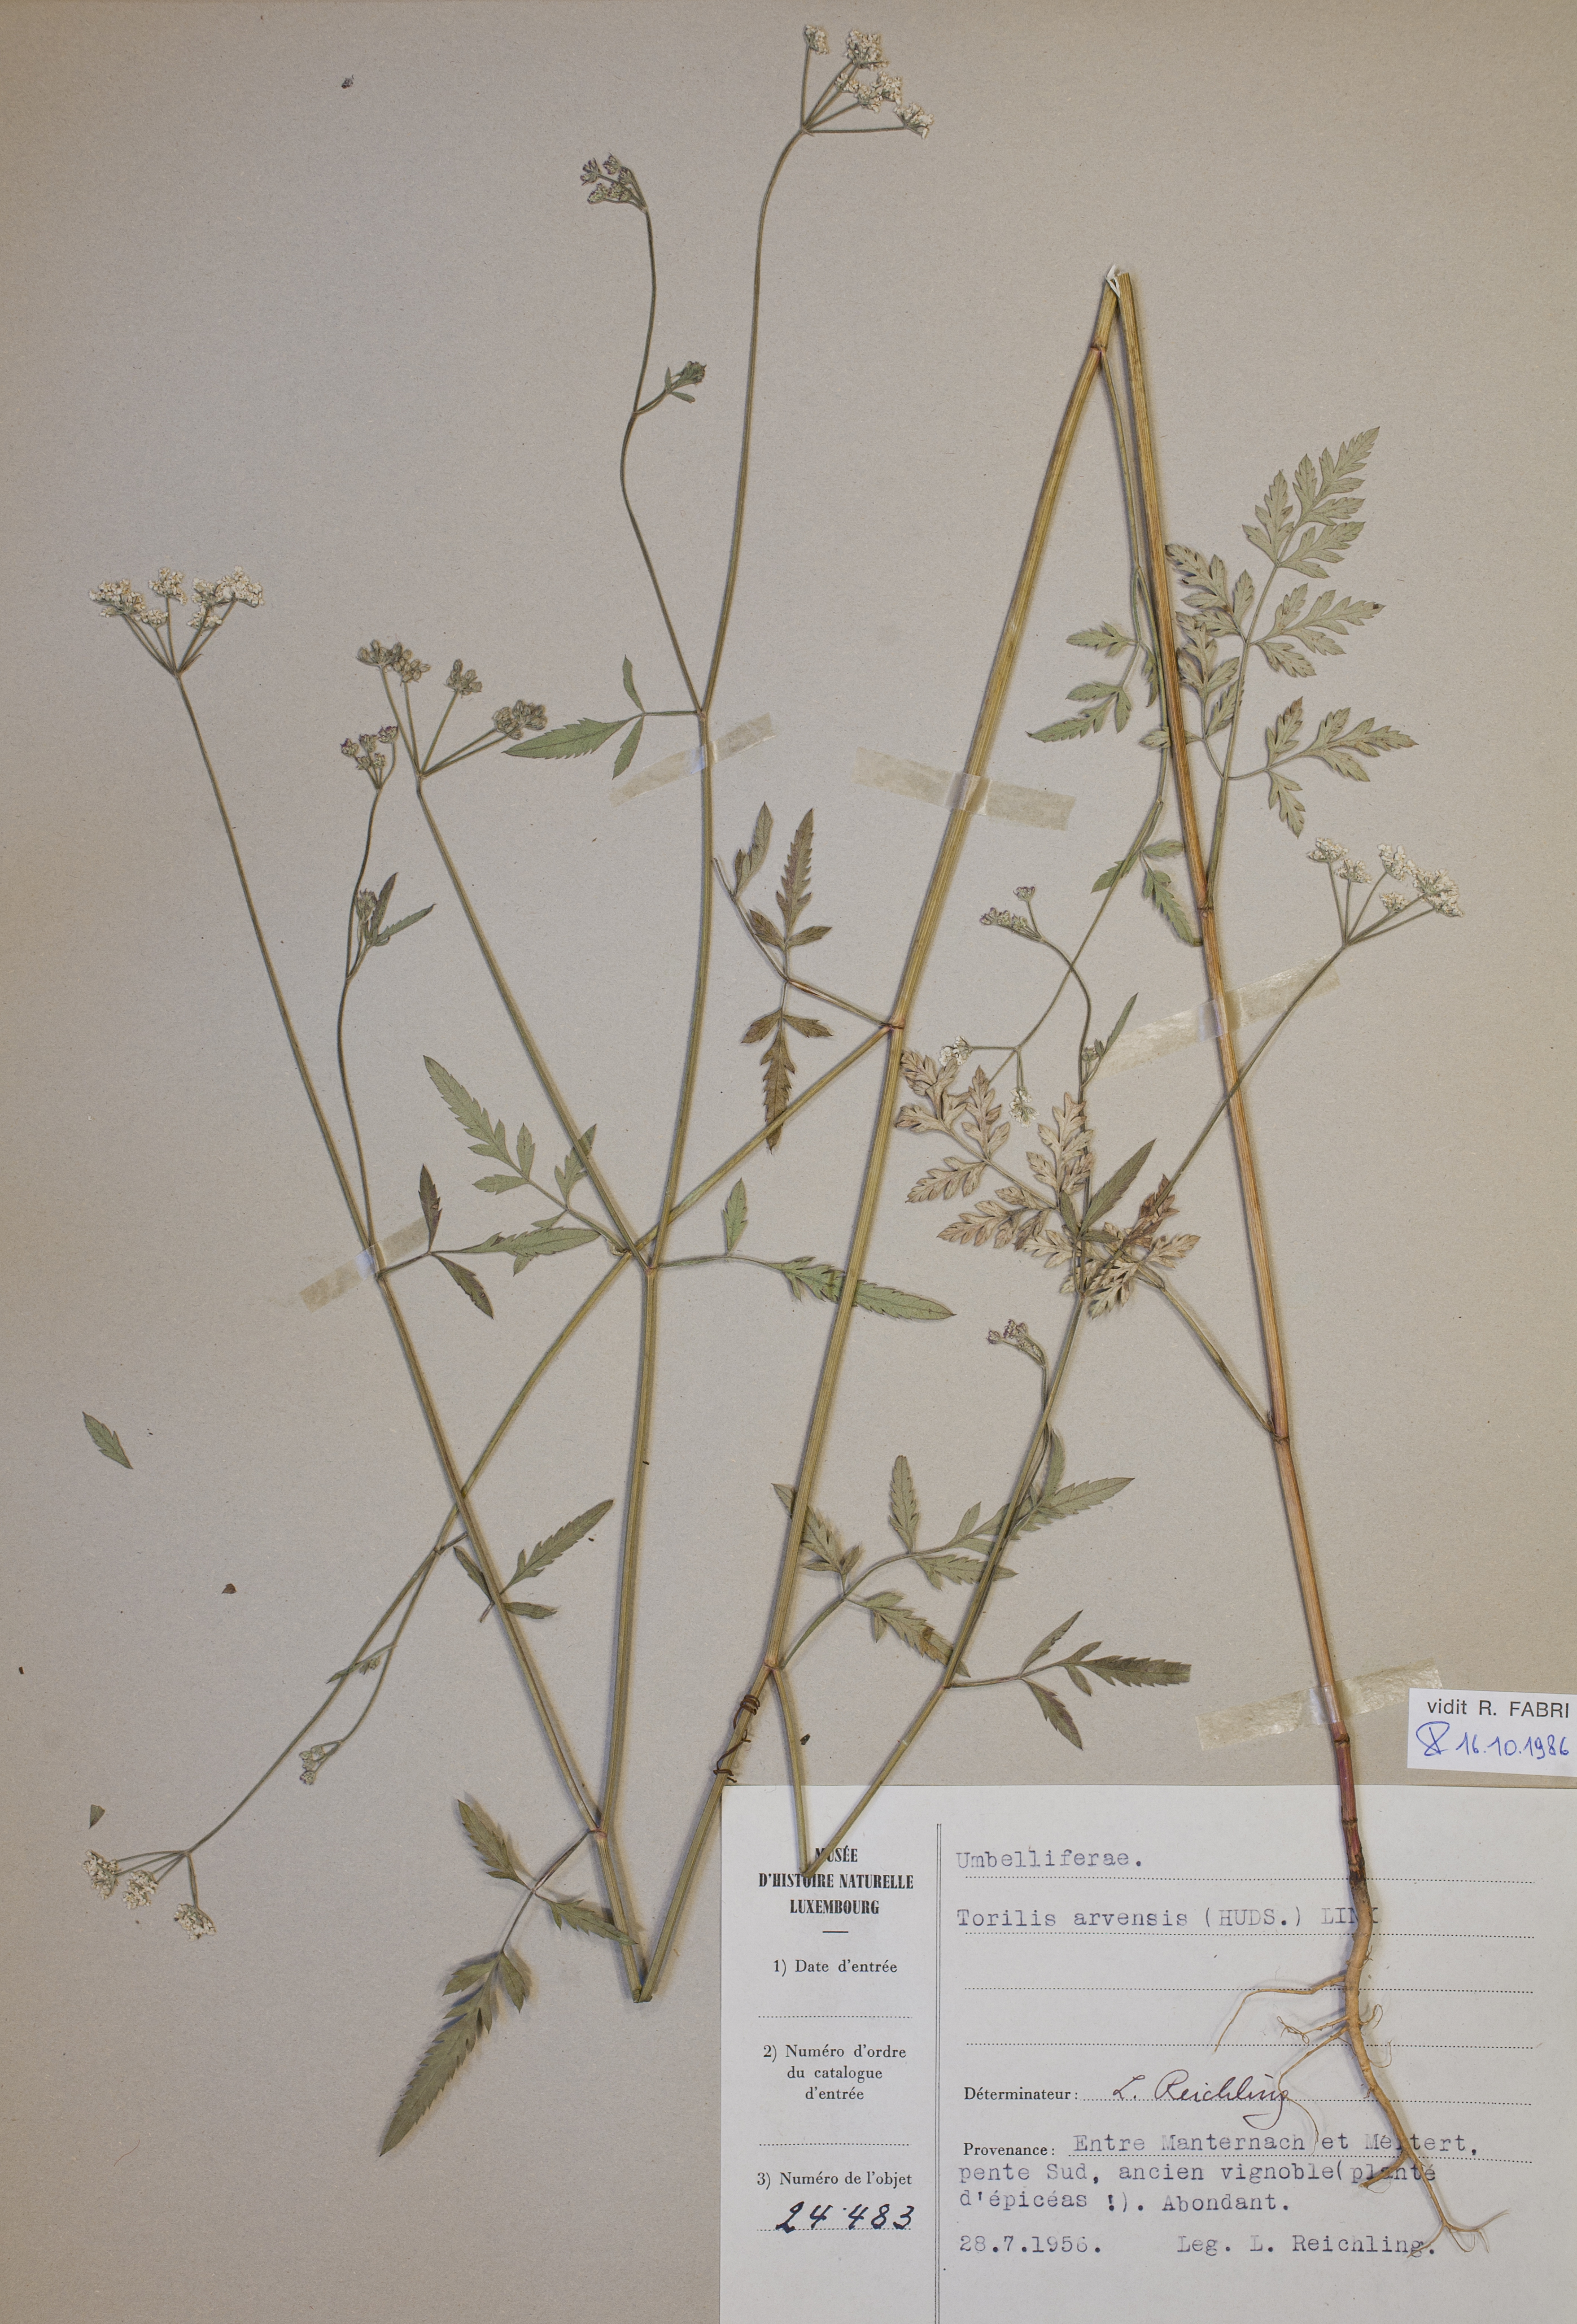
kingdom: Plantae
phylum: Tracheophyta
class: Magnoliopsida
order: Apiales
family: Apiaceae
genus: Torilis
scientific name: Torilis arvensis
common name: Spreading hedge-parsley
